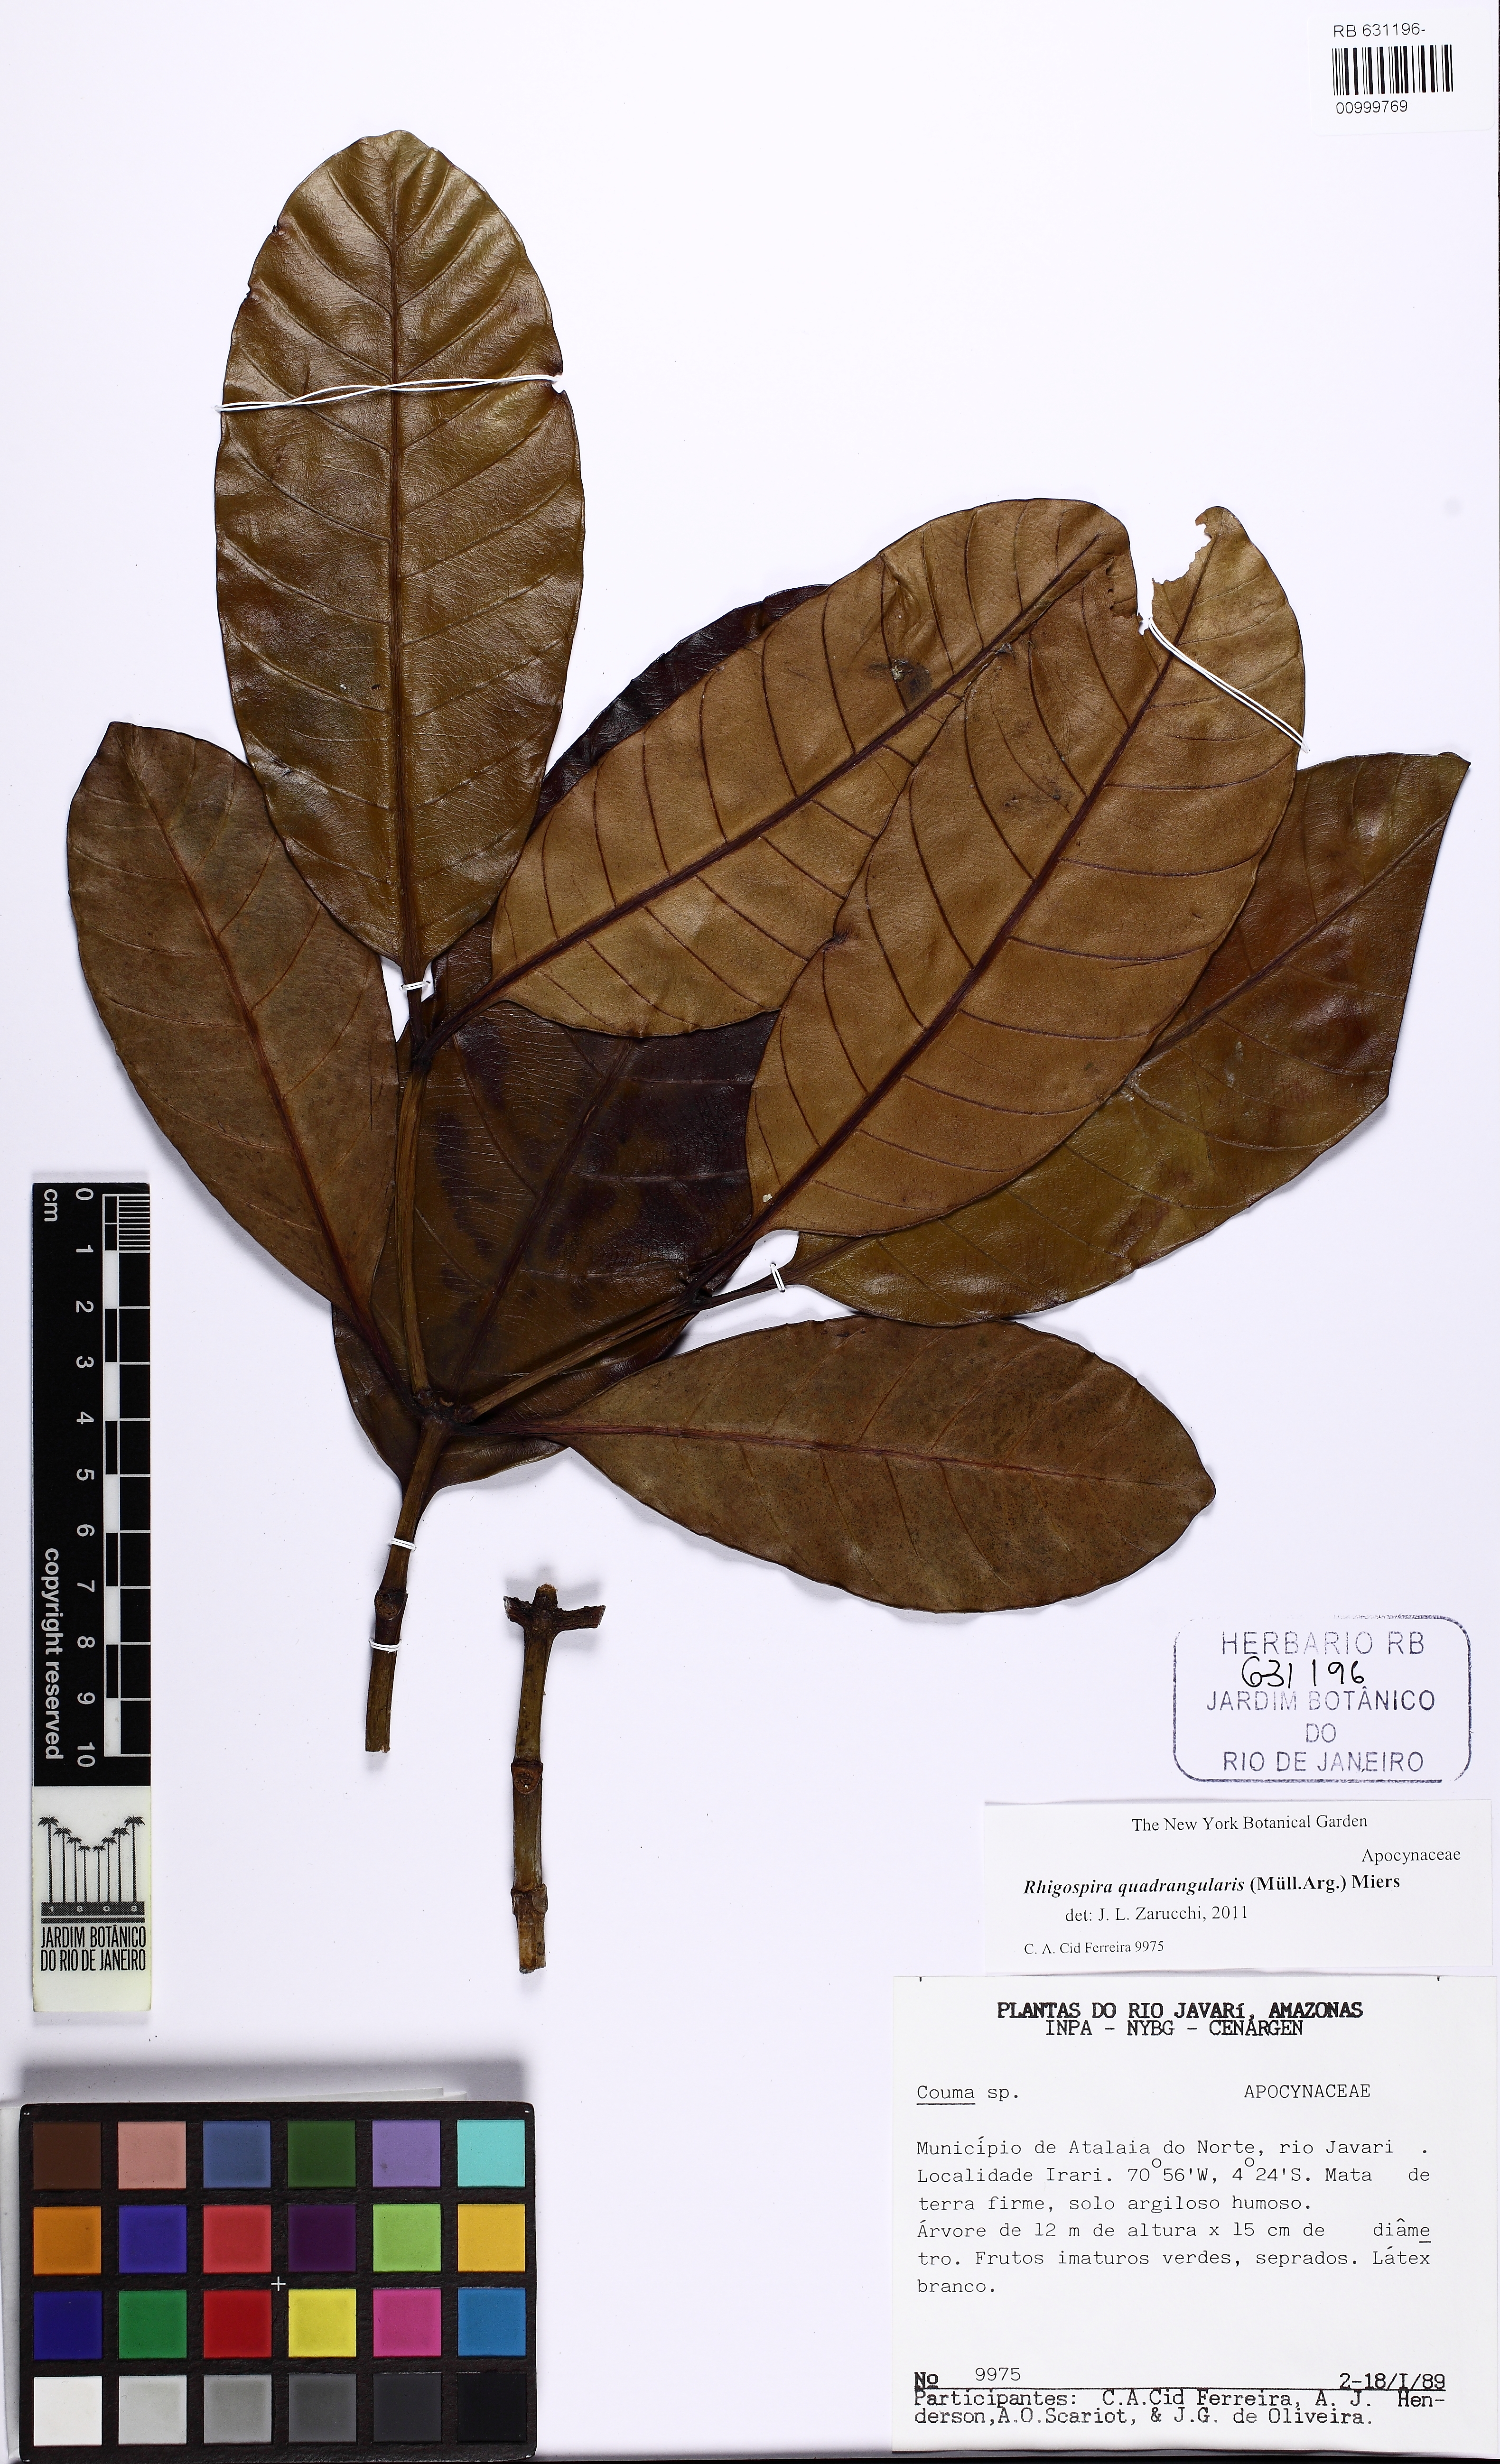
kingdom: Plantae
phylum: Tracheophyta
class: Magnoliopsida
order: Gentianales
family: Apocynaceae
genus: Rhigospira
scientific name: Rhigospira quadrangularis
